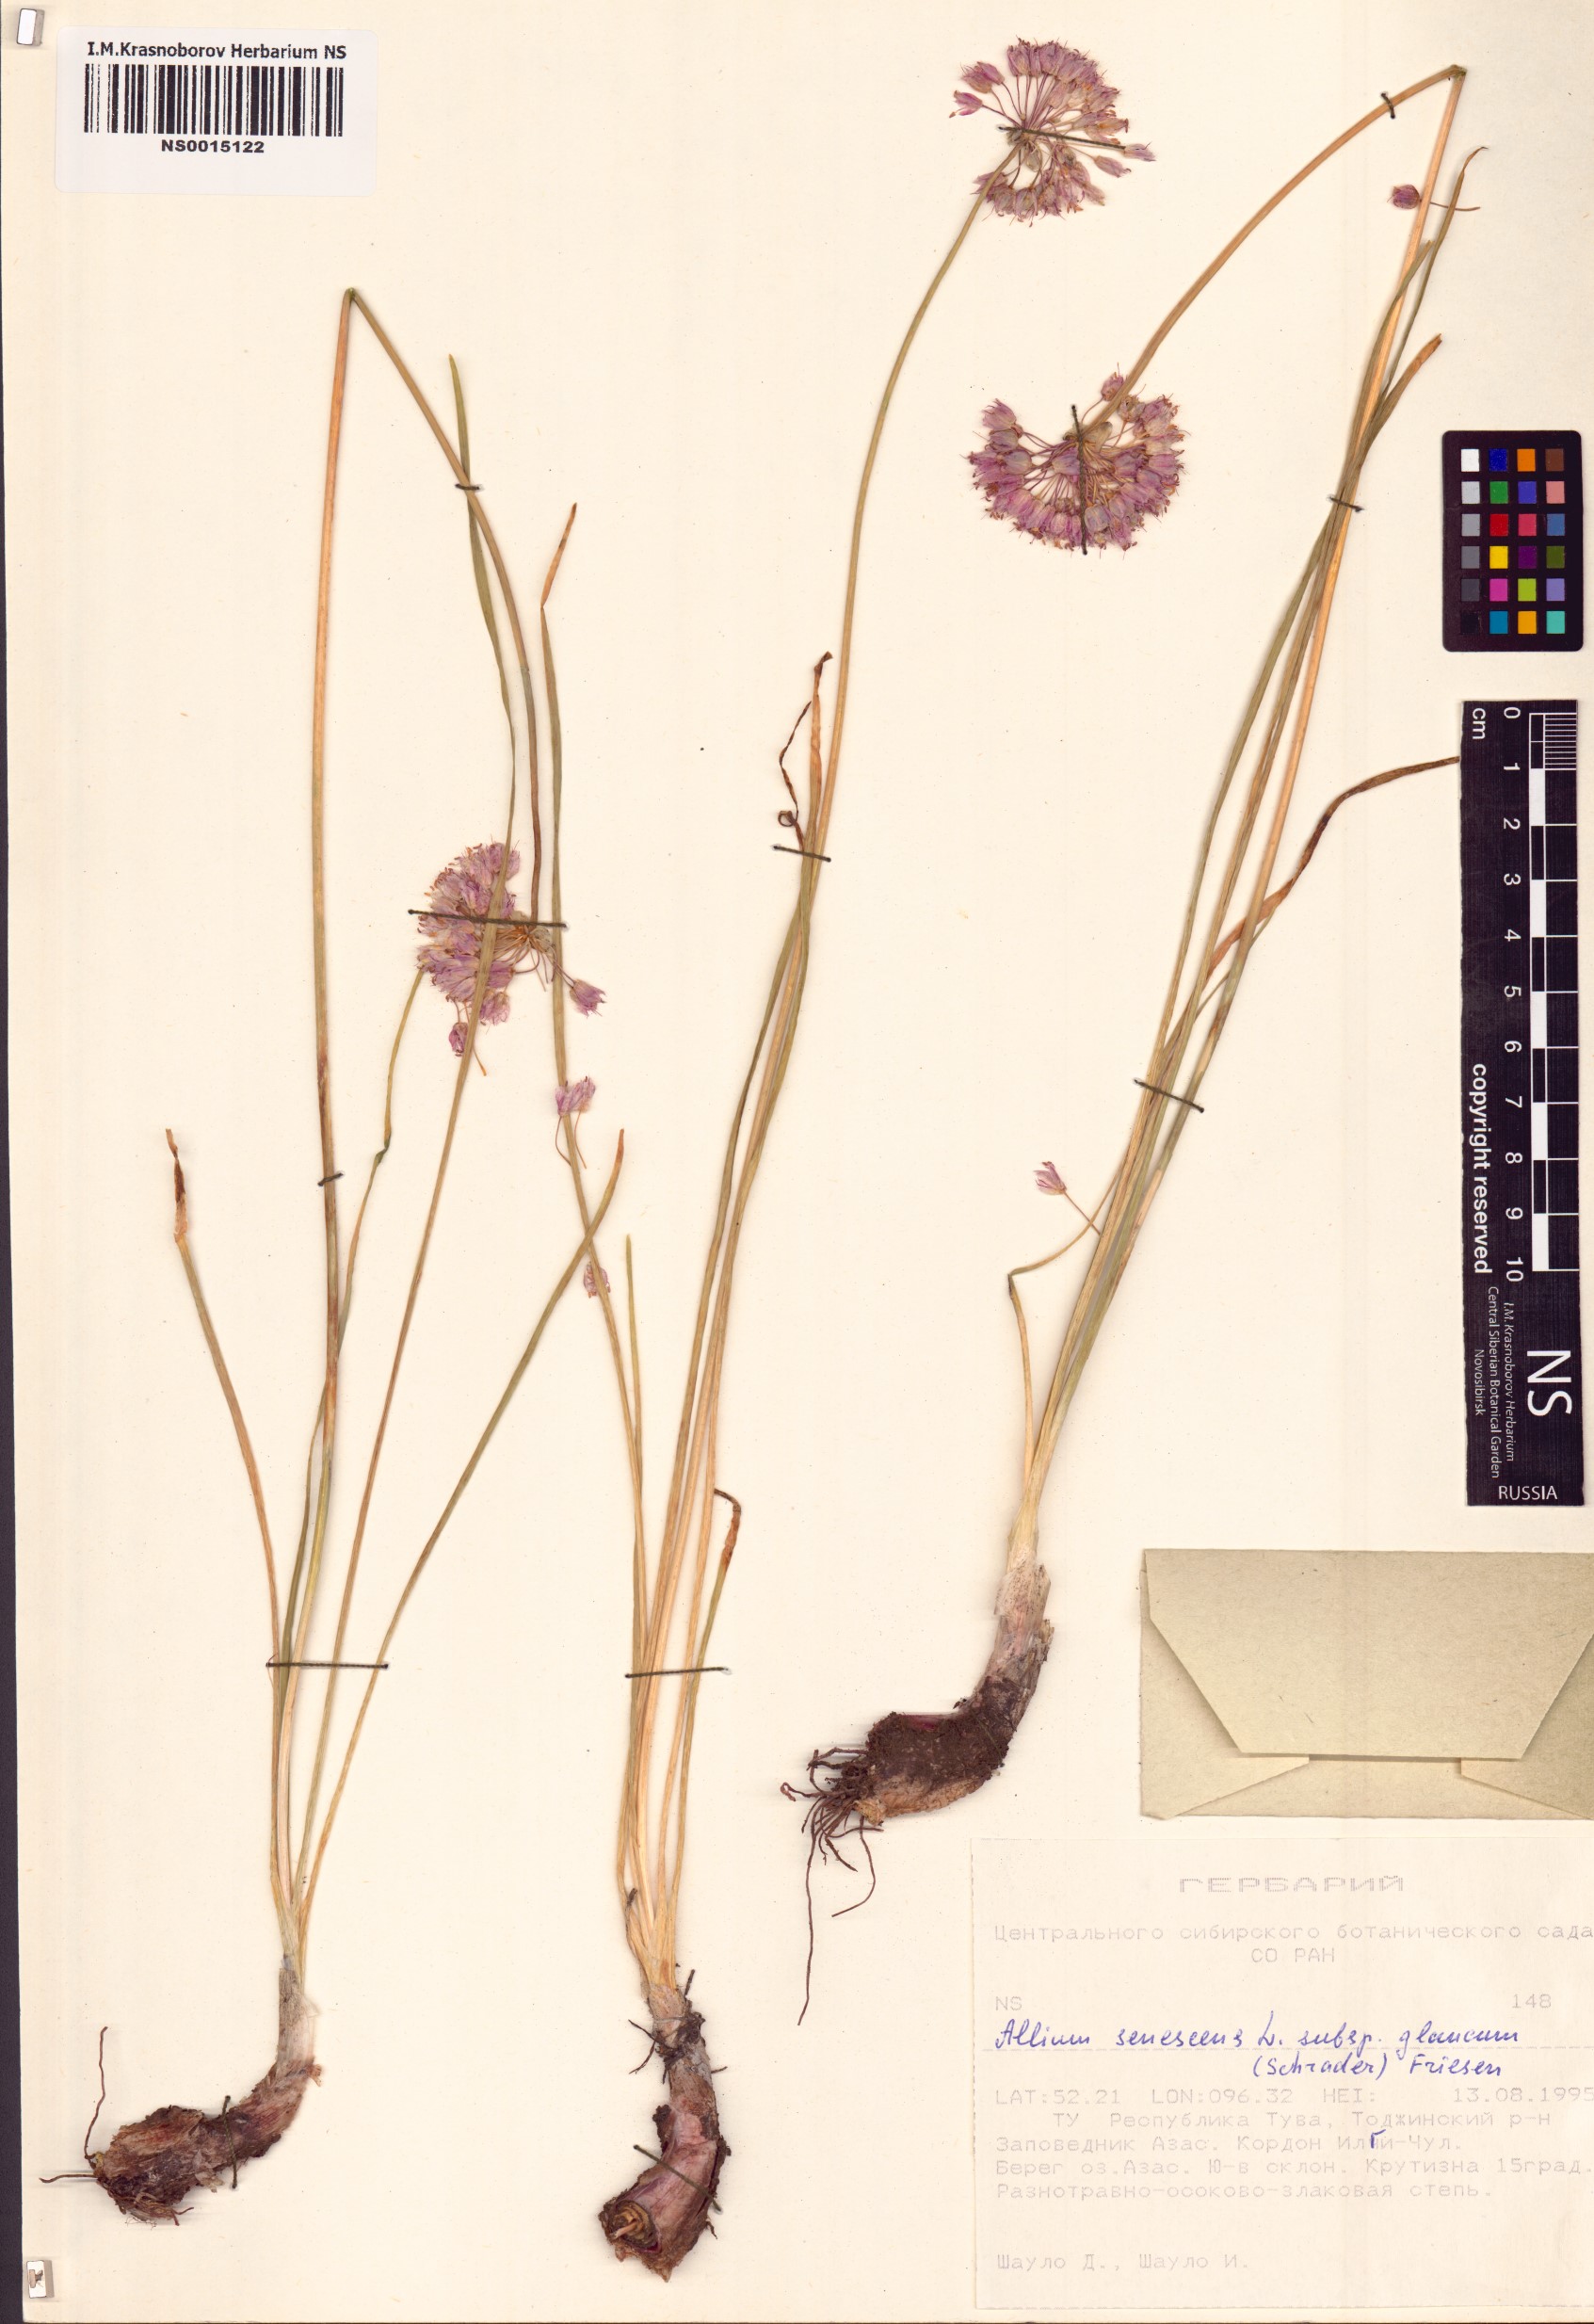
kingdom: Plantae
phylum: Tracheophyta
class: Liliopsida
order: Asparagales
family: Amaryllidaceae
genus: Allium
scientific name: Allium senescens
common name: German garlic
